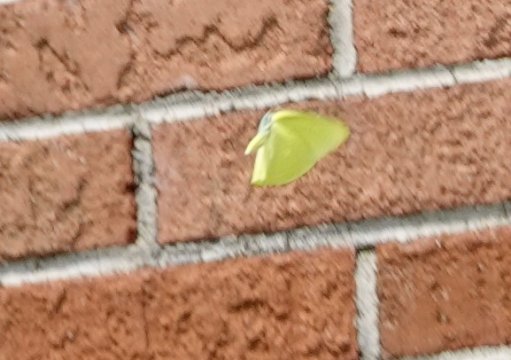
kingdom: Animalia
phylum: Arthropoda
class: Insecta
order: Lepidoptera
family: Pieridae
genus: Phoebis
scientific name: Phoebis sennae
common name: Cloudless Sulphur
